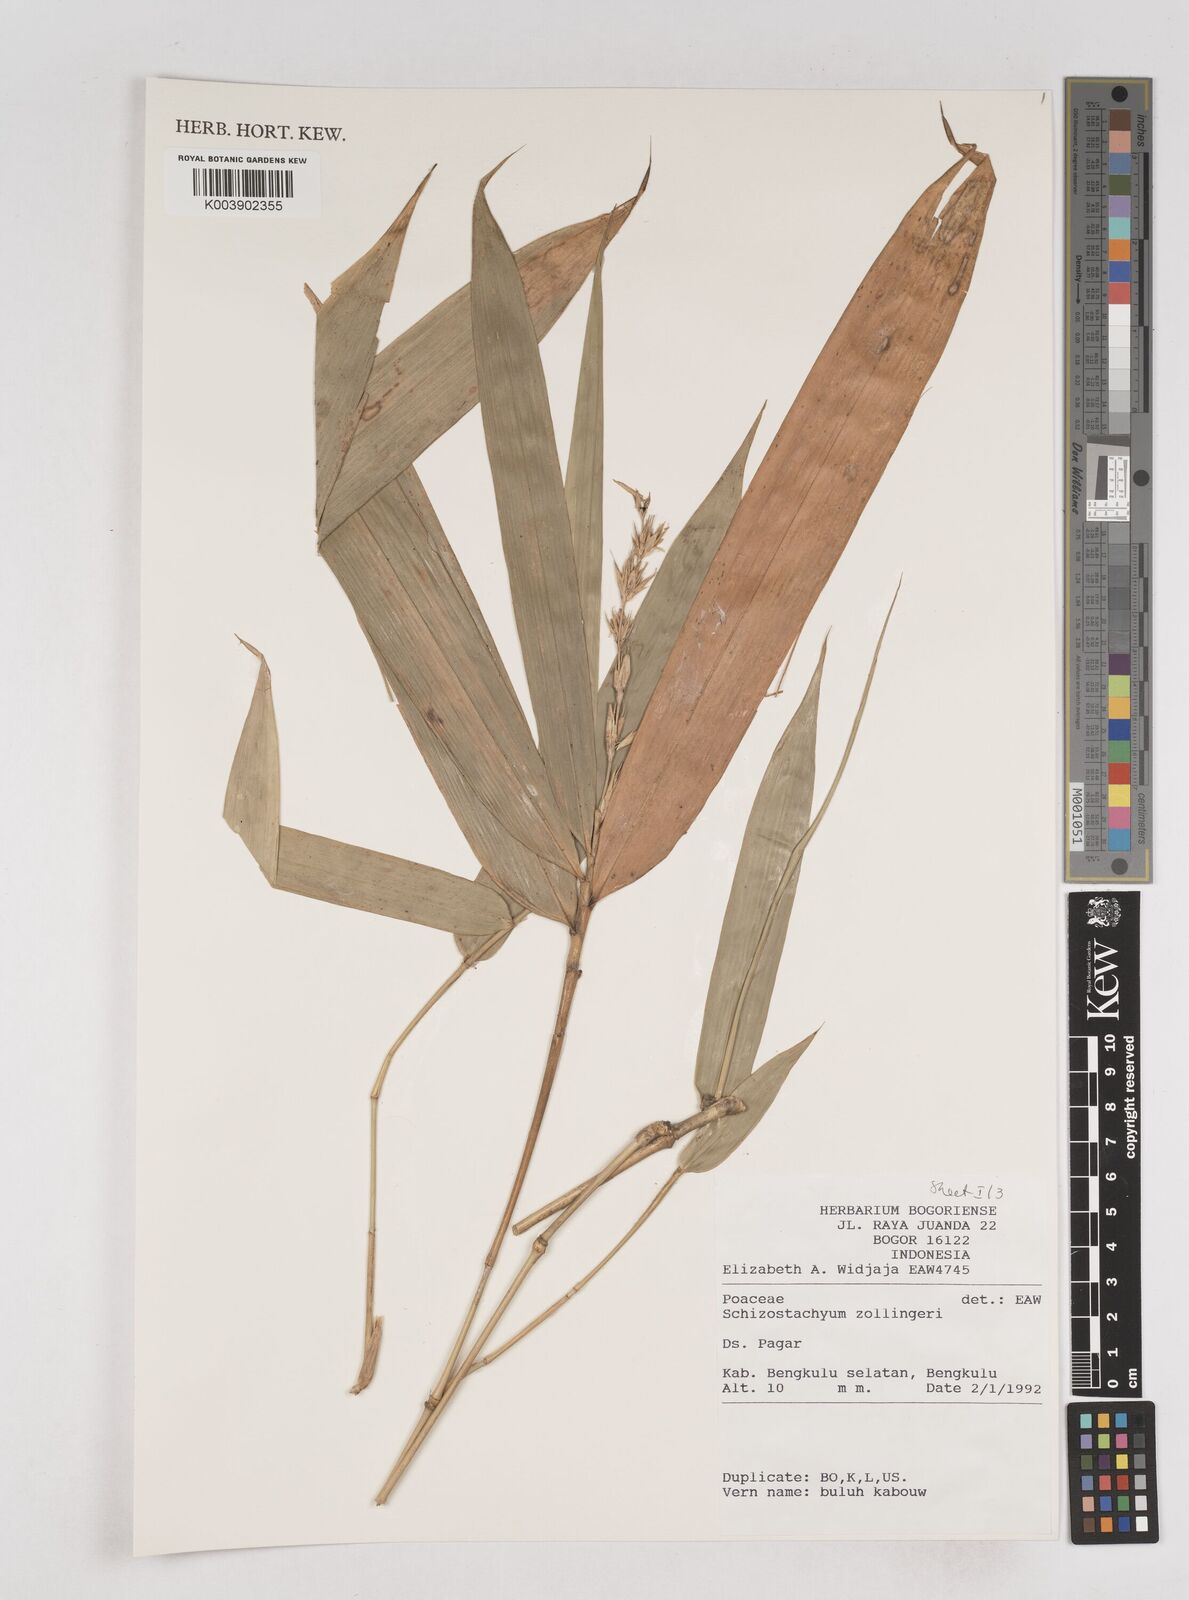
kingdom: Plantae
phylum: Tracheophyta
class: Liliopsida
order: Poales
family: Poaceae
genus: Schizostachyum
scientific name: Schizostachyum zollingeri
